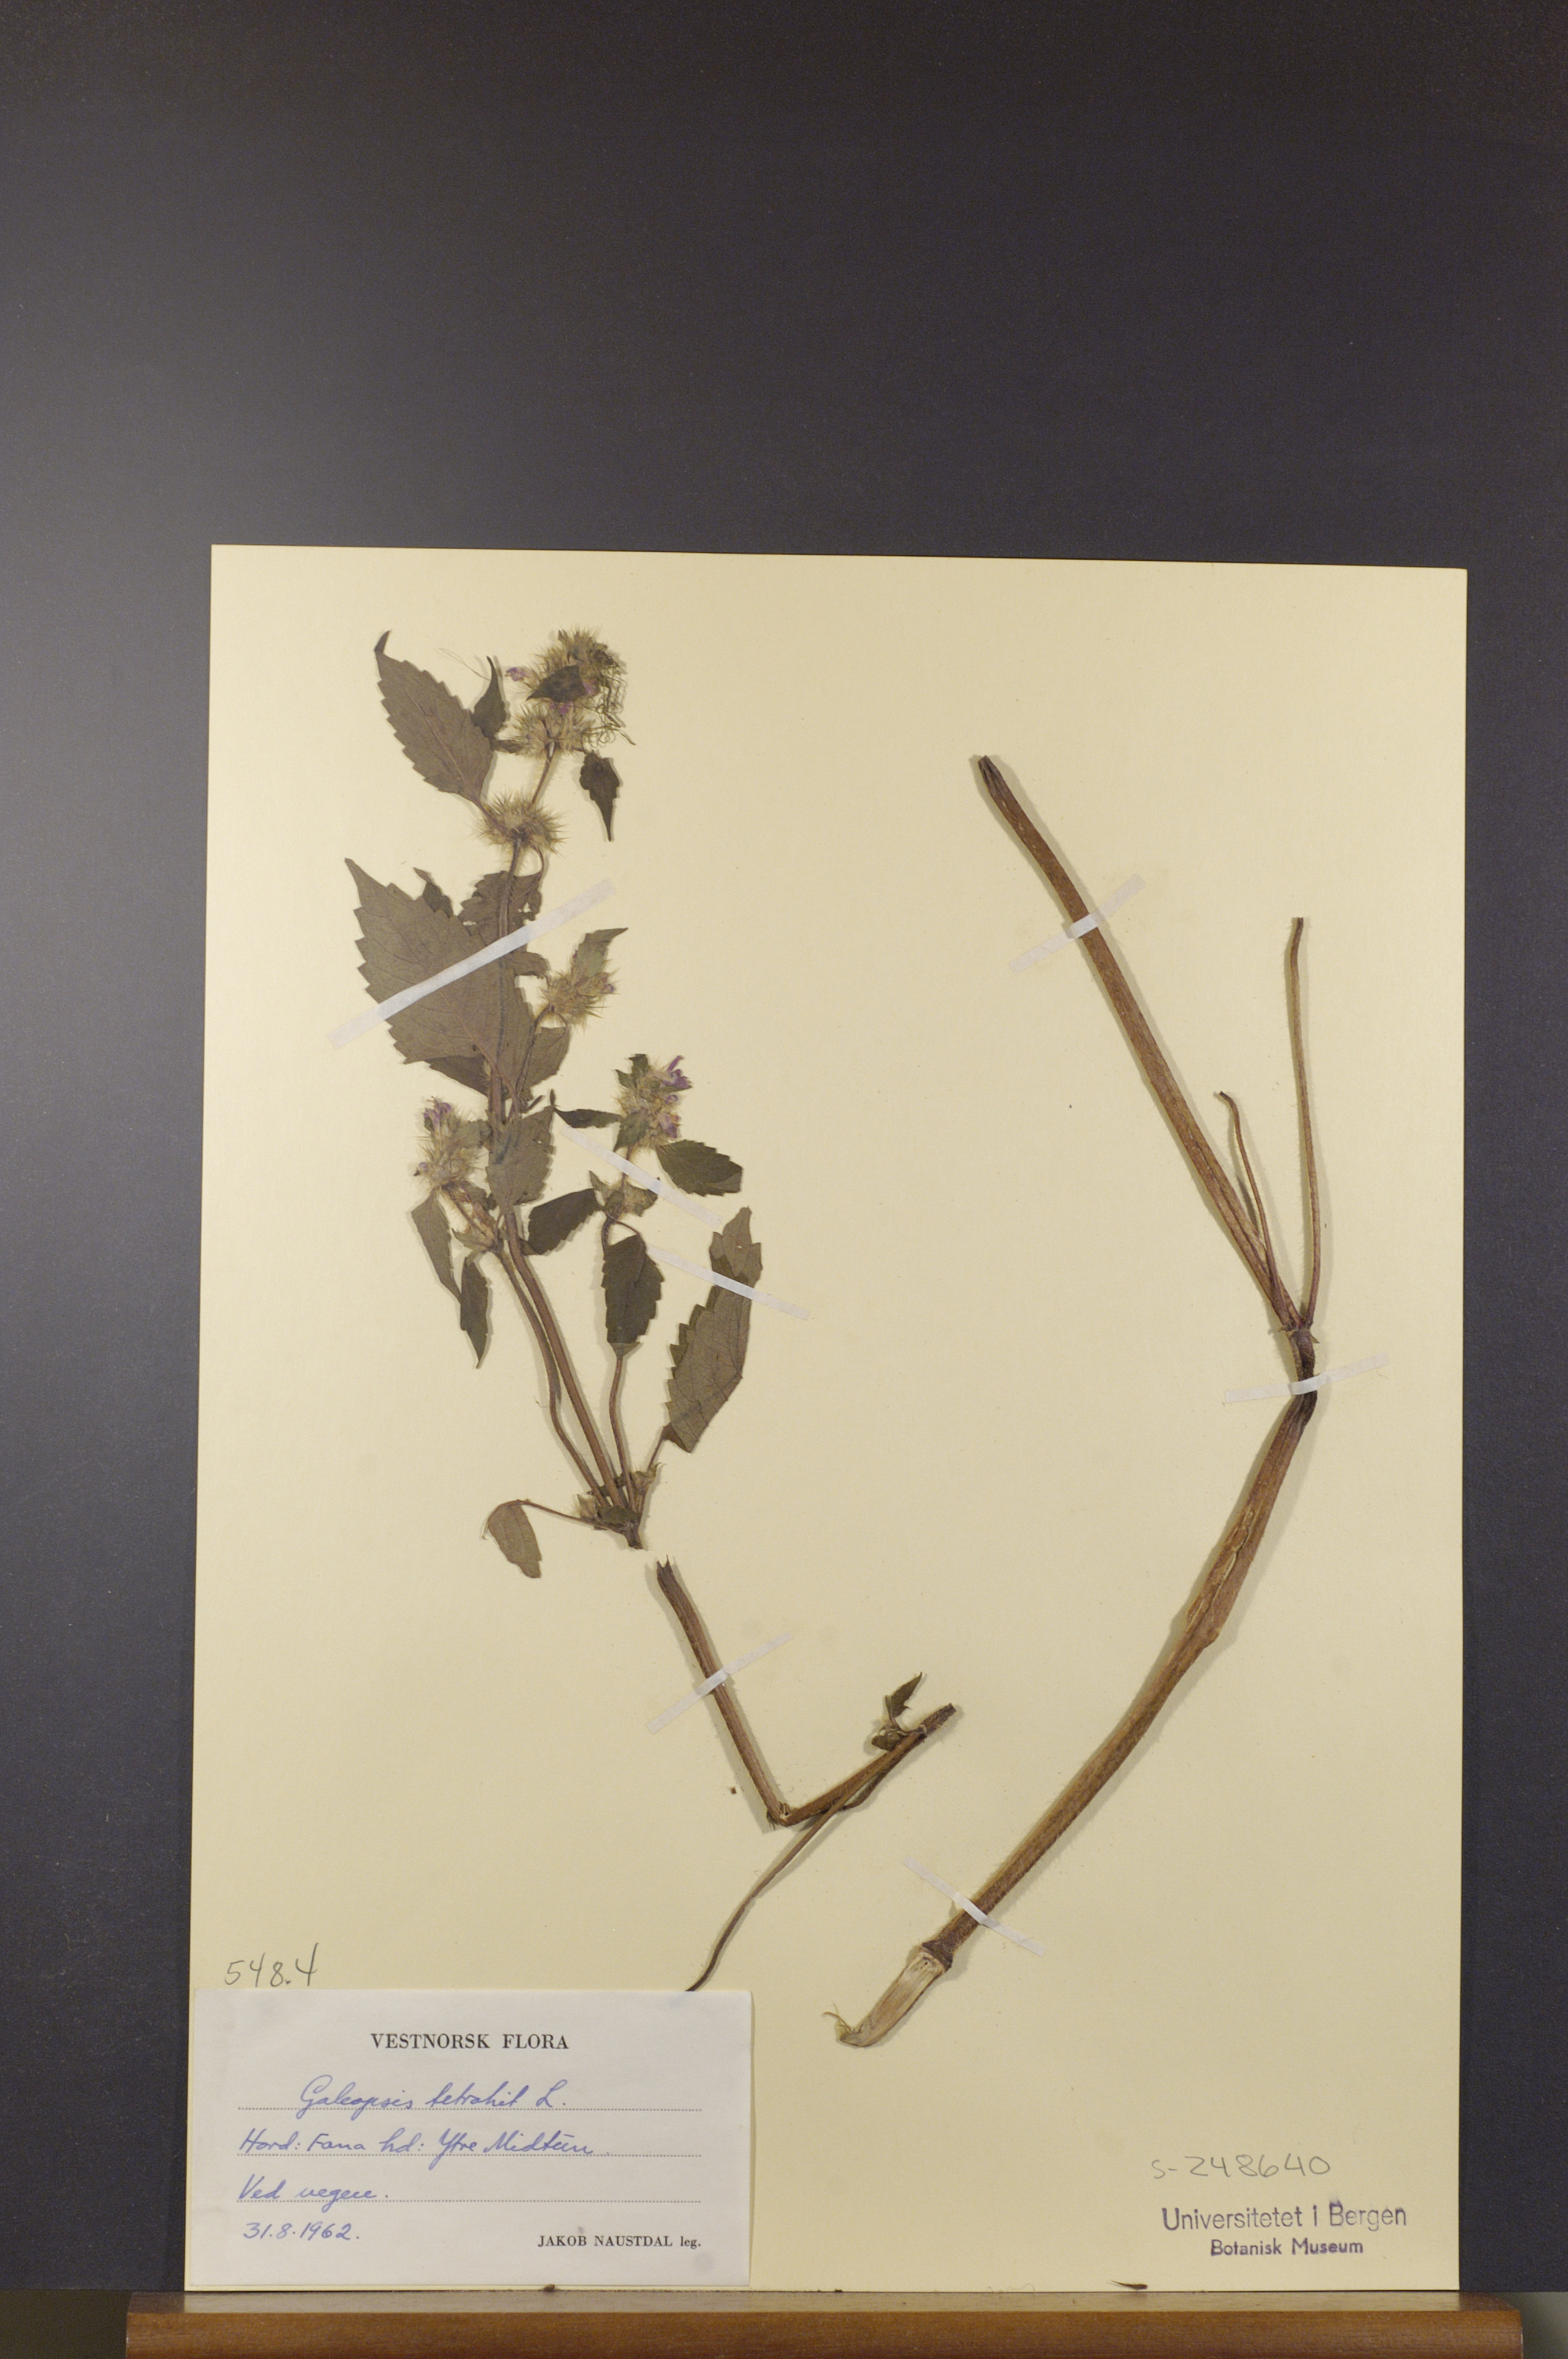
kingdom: Plantae
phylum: Tracheophyta
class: Magnoliopsida
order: Lamiales
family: Lamiaceae
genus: Galeopsis
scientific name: Galeopsis tetrahit
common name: Common hemp-nettle
